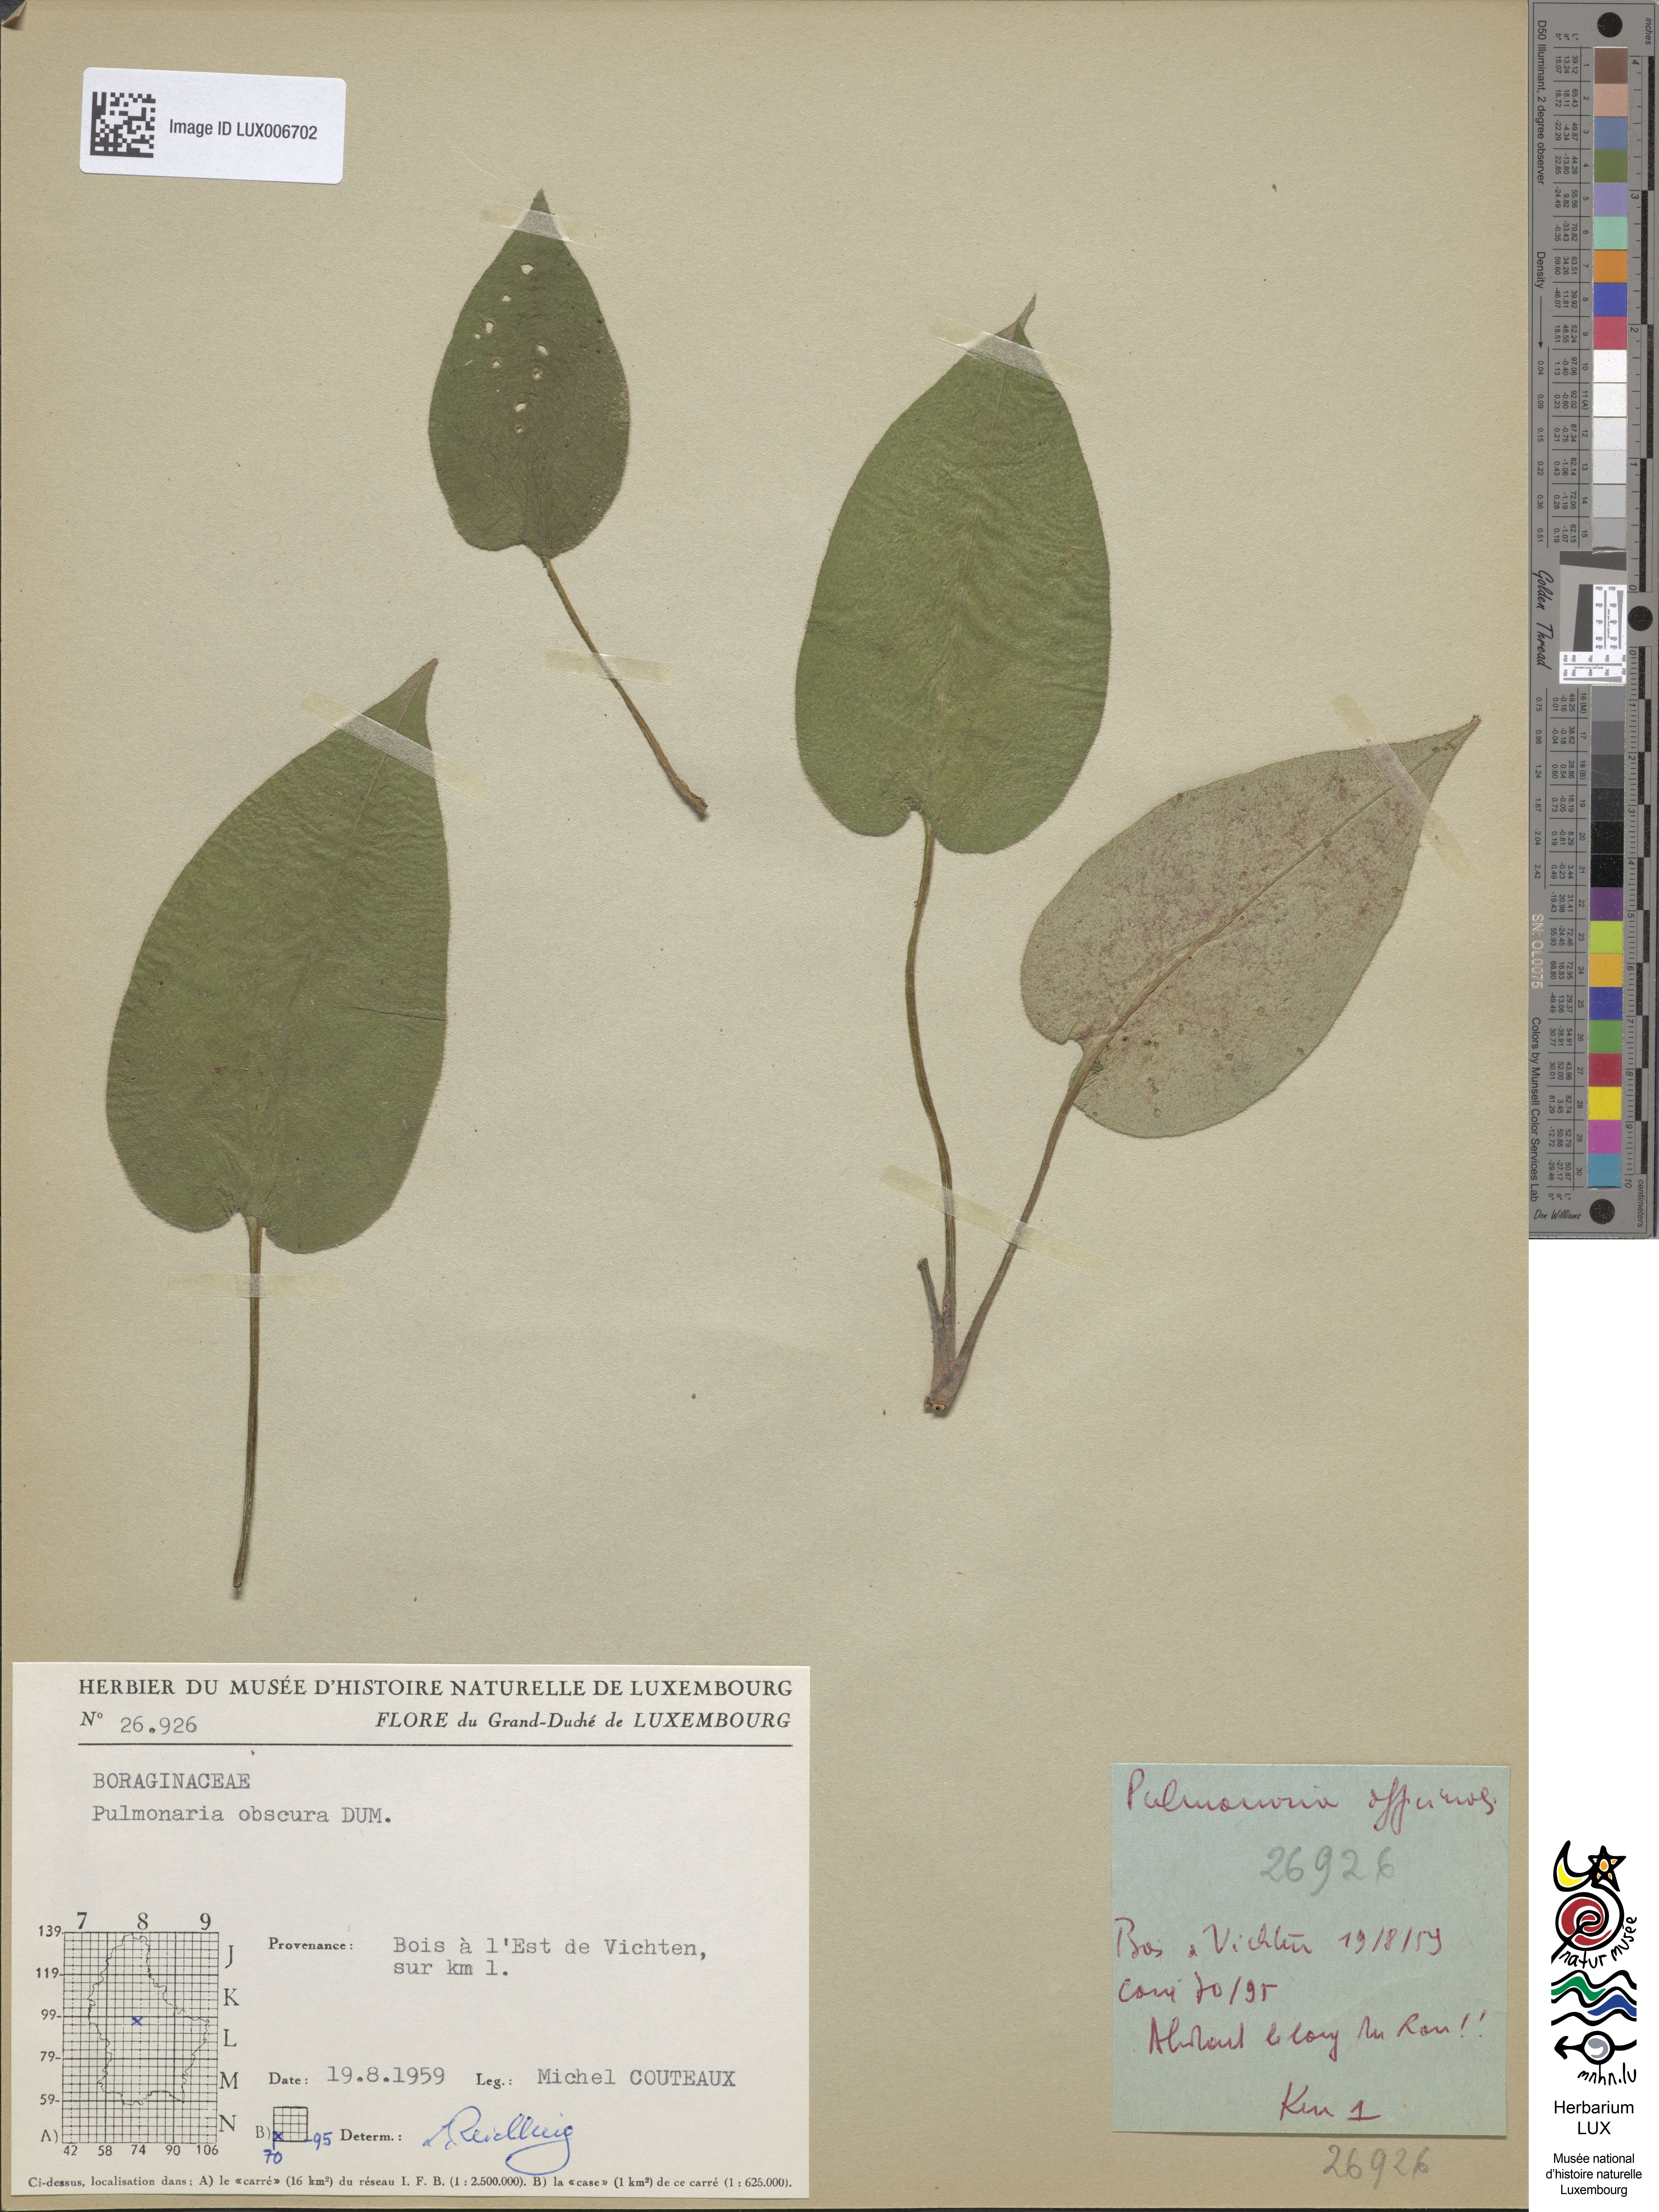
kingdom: Plantae
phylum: Tracheophyta
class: Magnoliopsida
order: Boraginales
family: Boraginaceae
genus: Pulmonaria
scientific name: Pulmonaria obscura
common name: Suffolk lungwort
